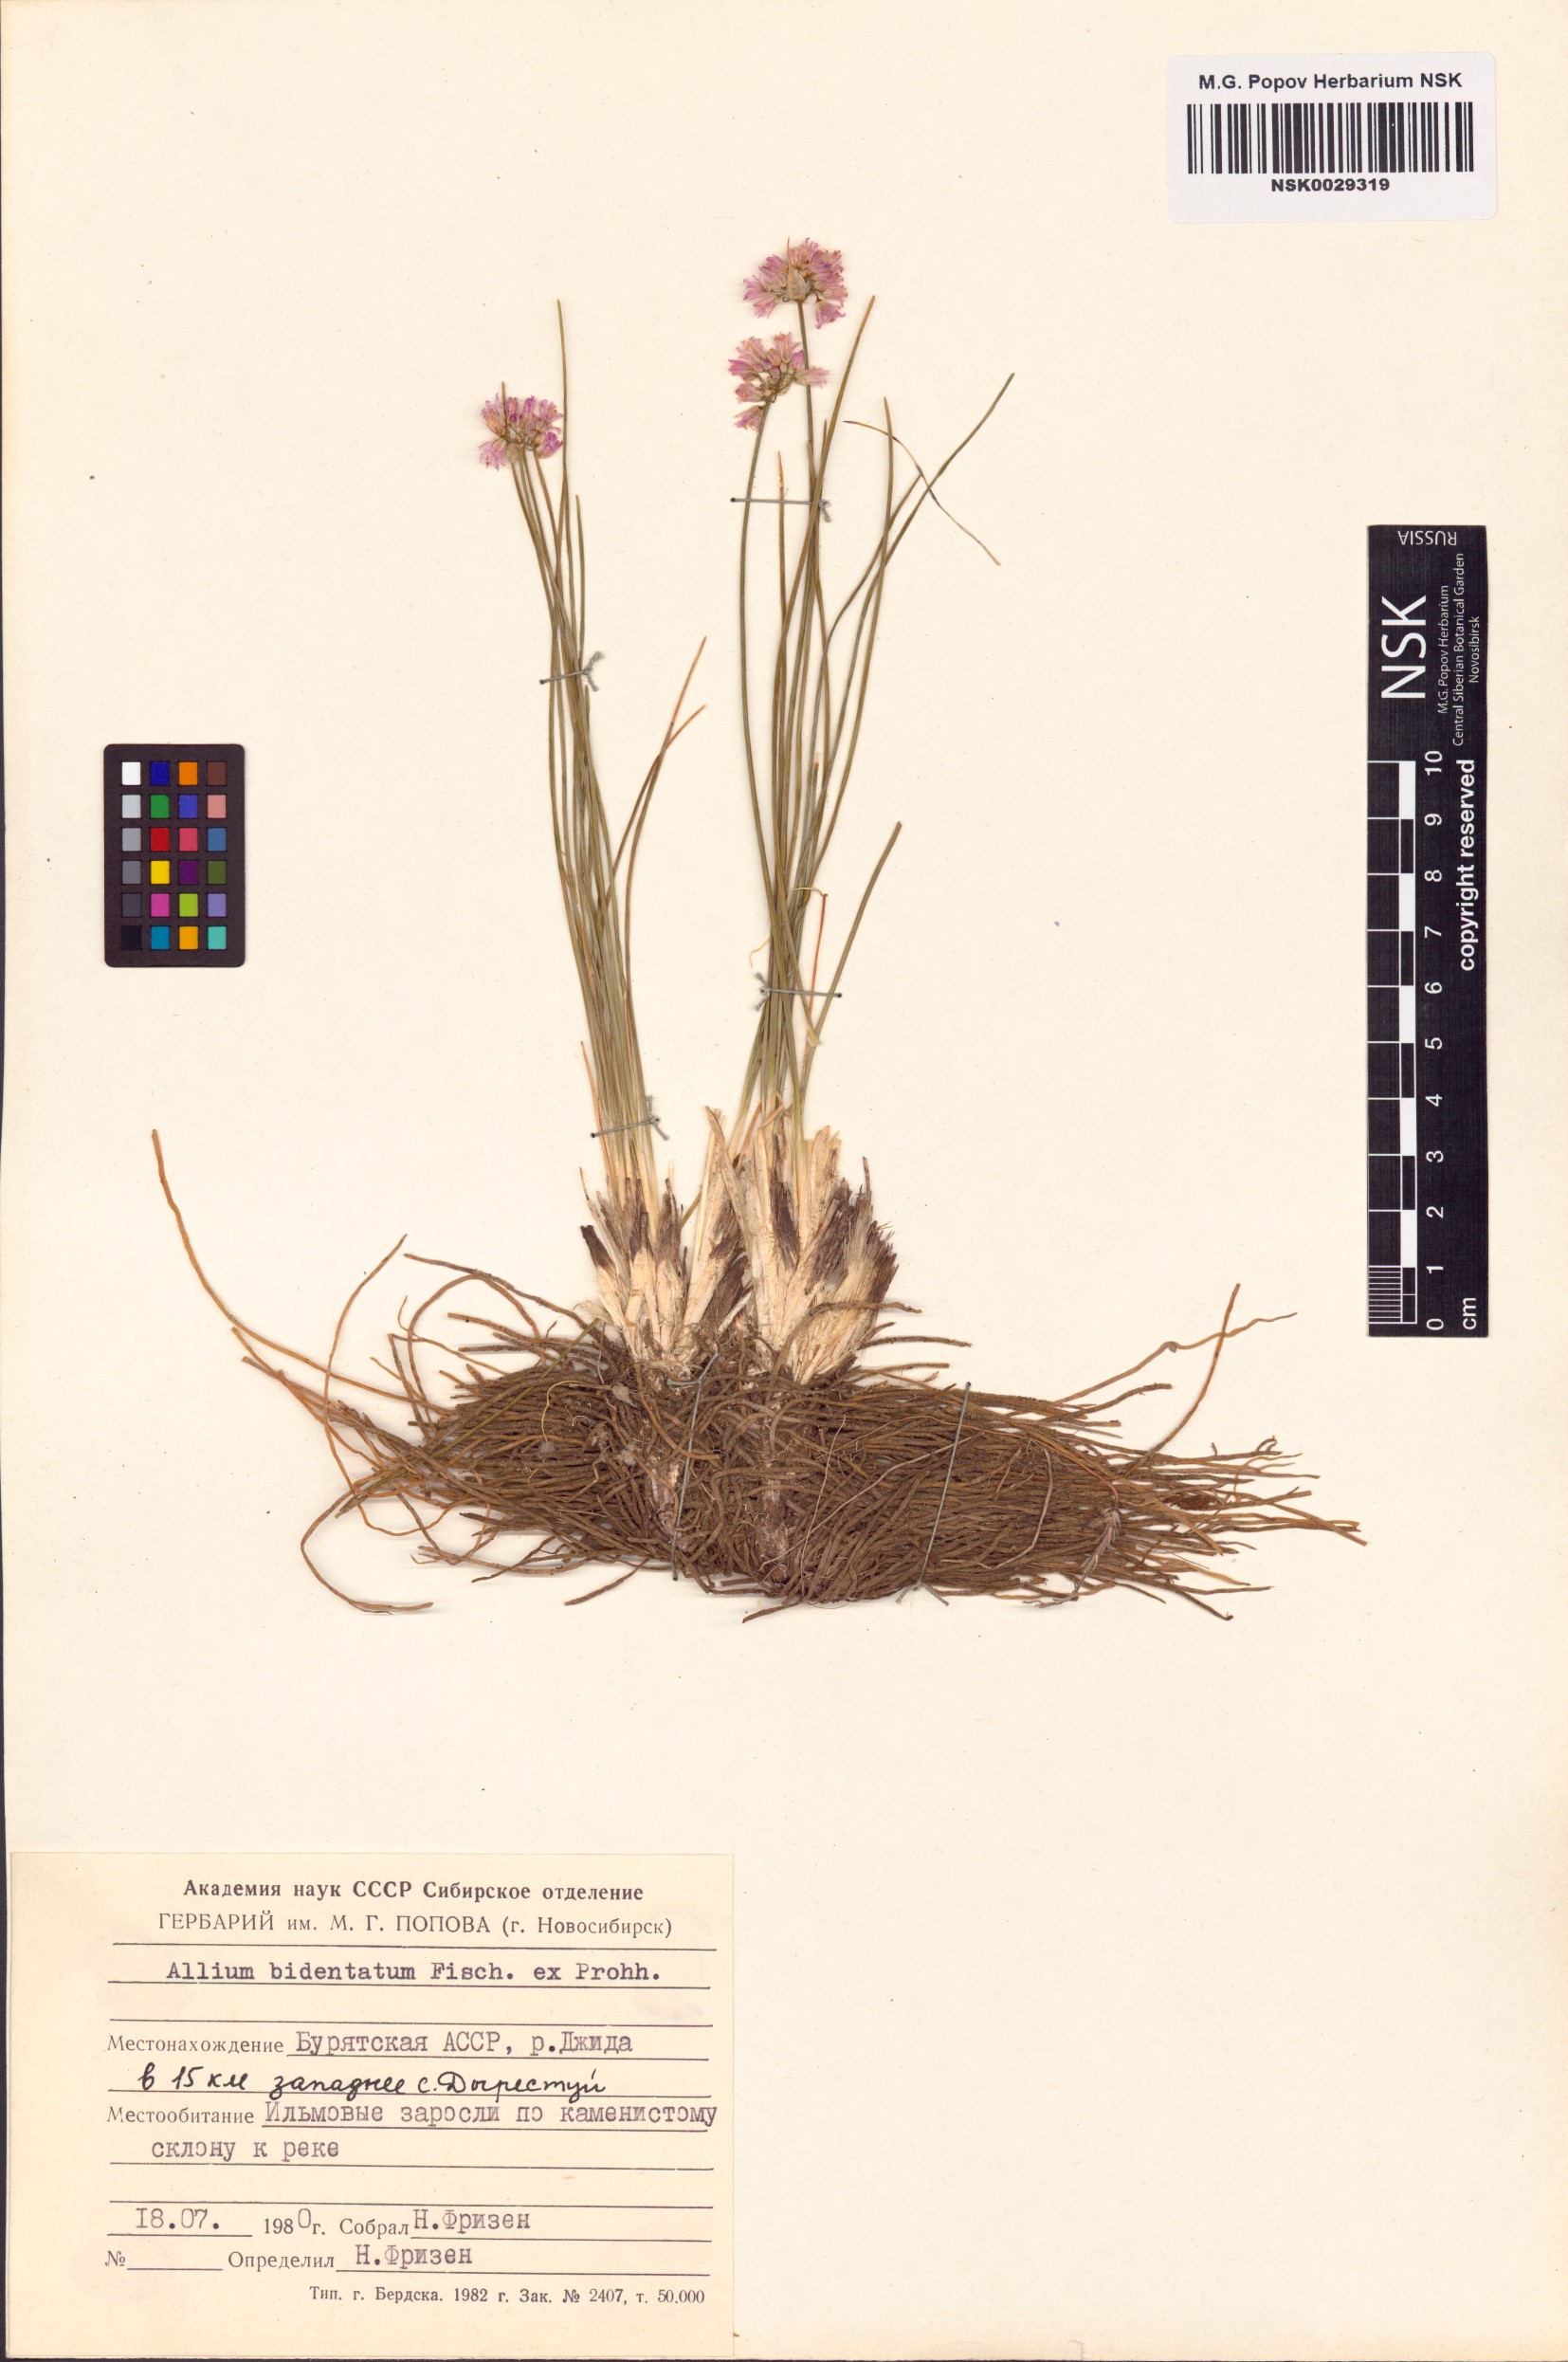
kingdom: Plantae
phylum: Tracheophyta
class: Liliopsida
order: Asparagales
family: Amaryllidaceae
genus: Allium
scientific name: Allium bidentatum
